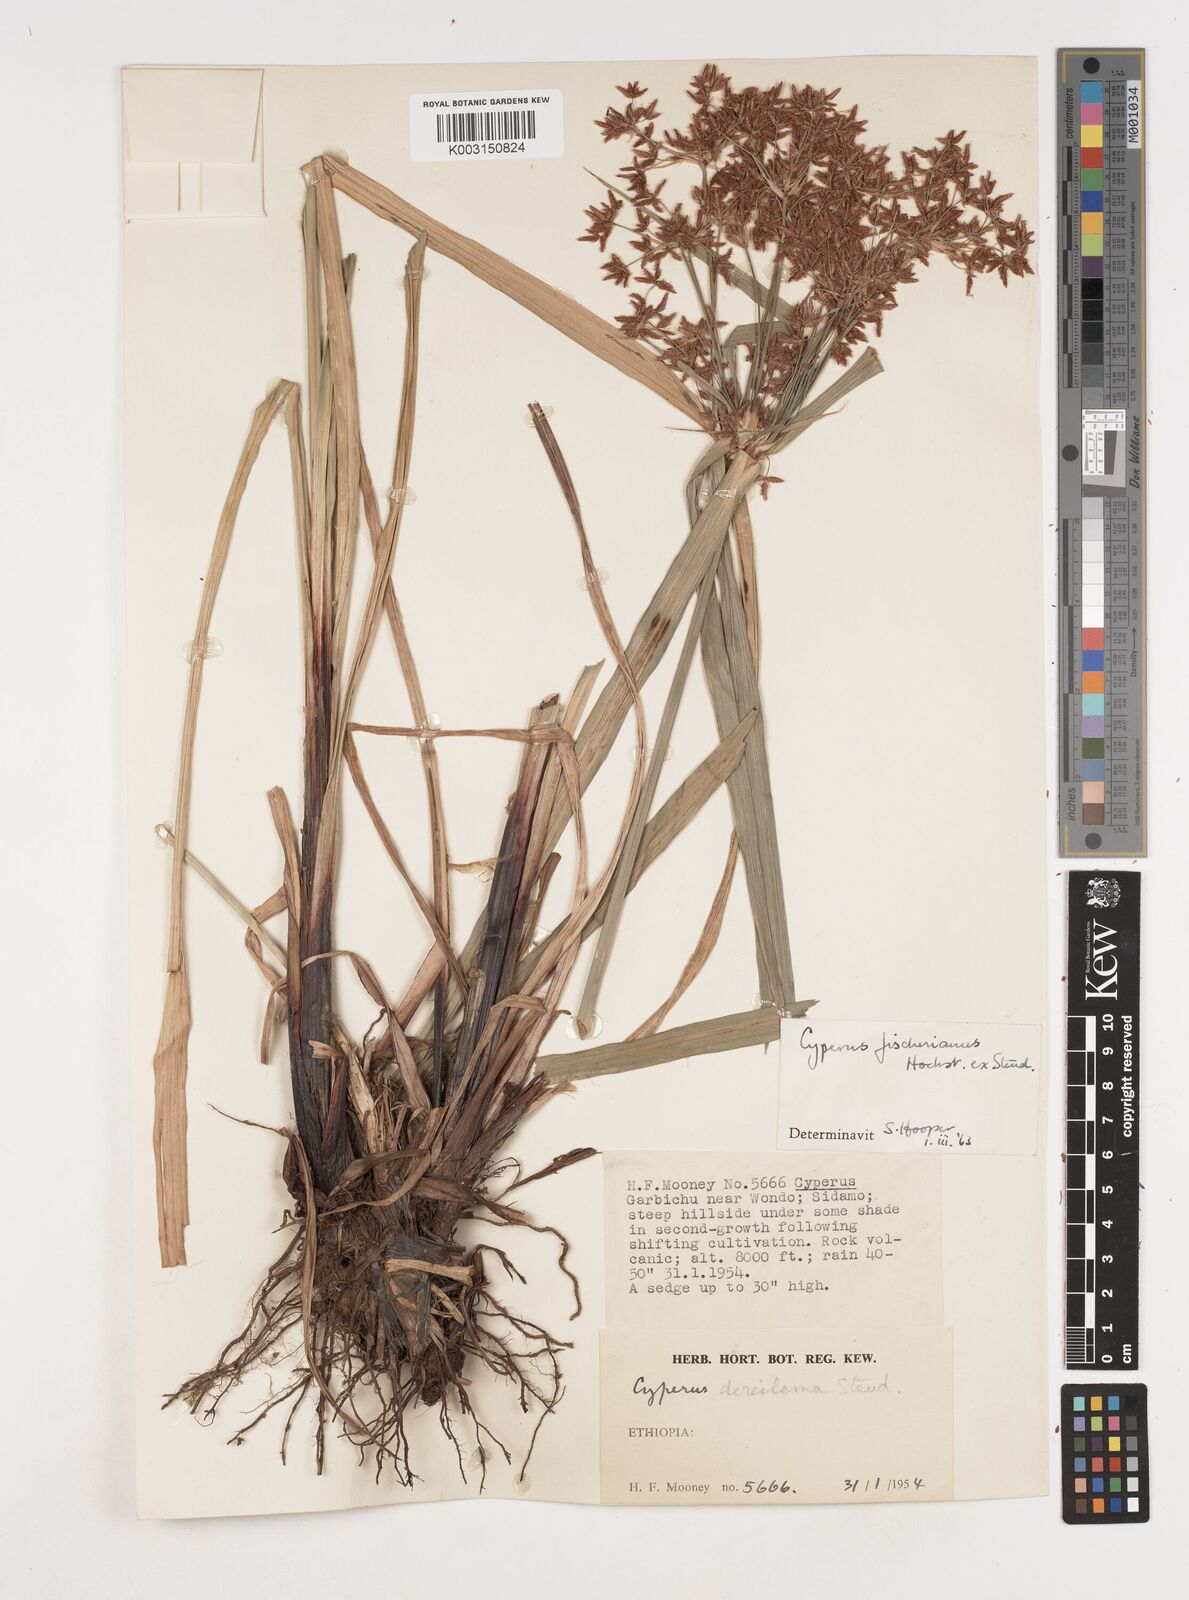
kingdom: Plantae
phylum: Tracheophyta
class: Liliopsida
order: Poales
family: Cyperaceae
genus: Cyperus
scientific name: Cyperus fischerianus
